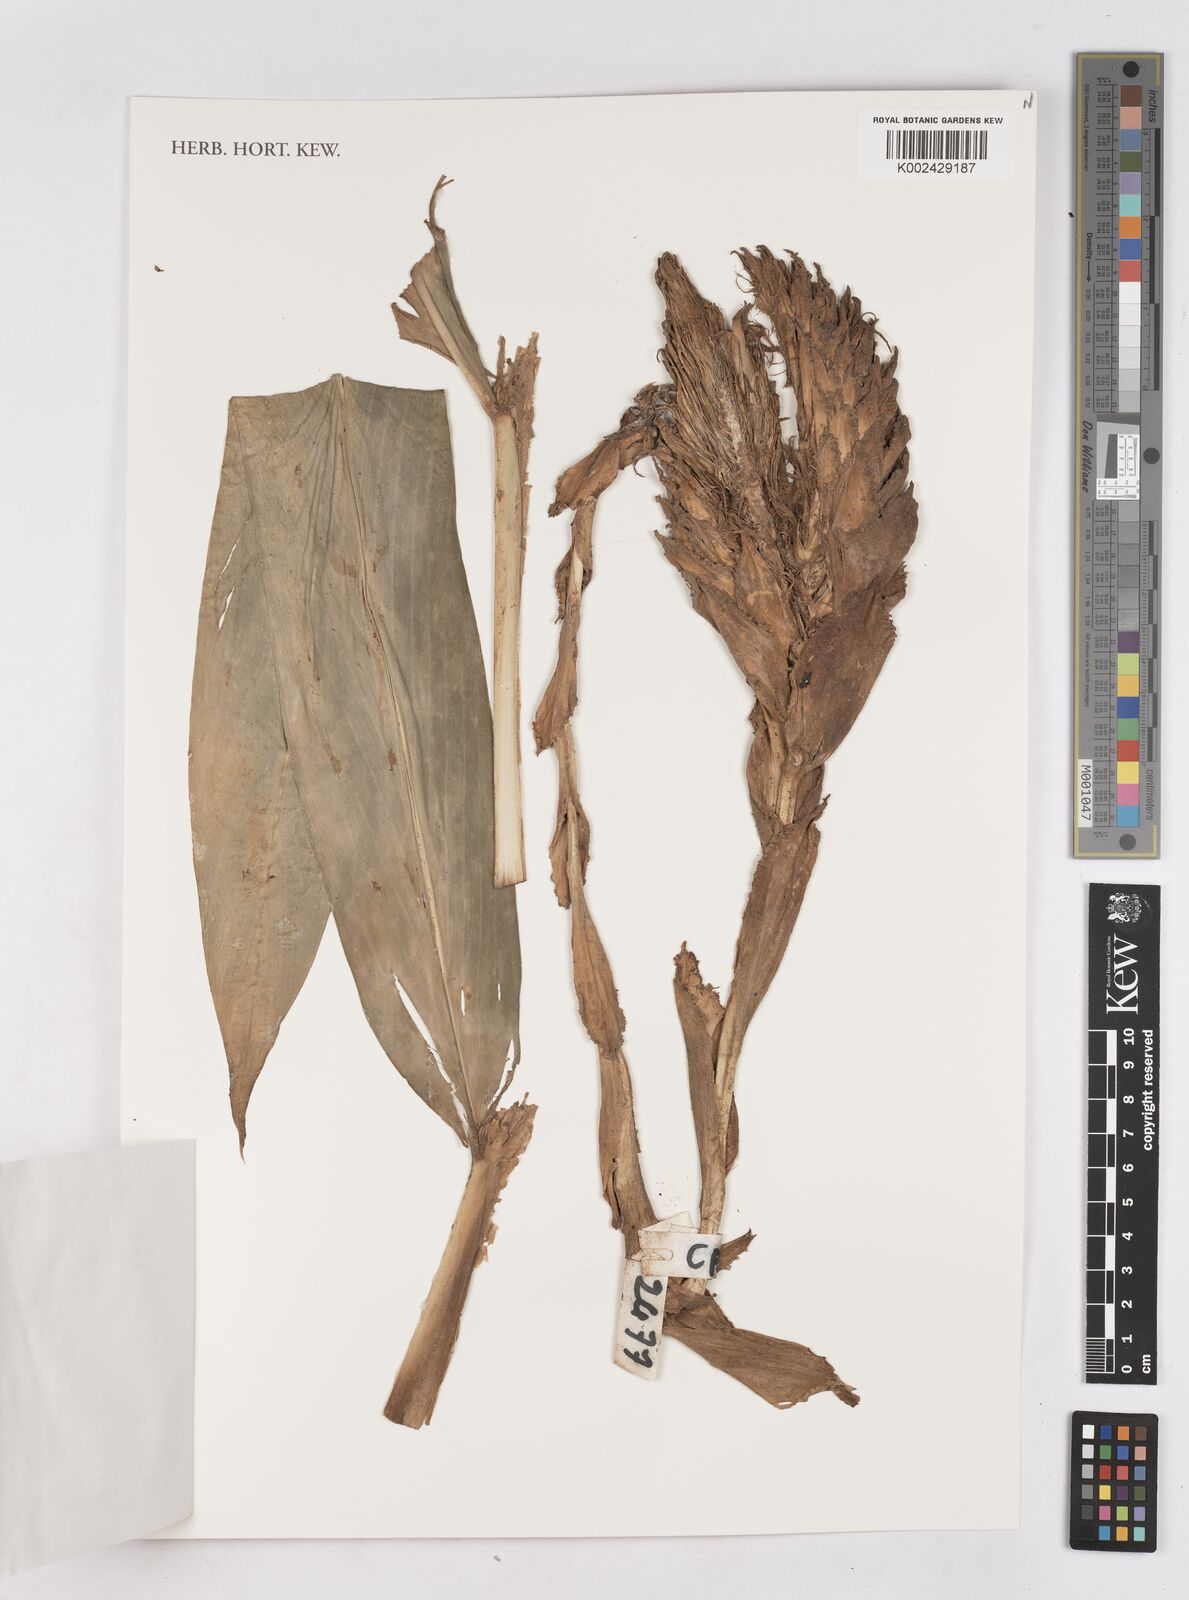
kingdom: Plantae
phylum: Tracheophyta
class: Liliopsida
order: Zingiberales
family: Zingiberaceae
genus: Zingiber
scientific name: Zingiber
